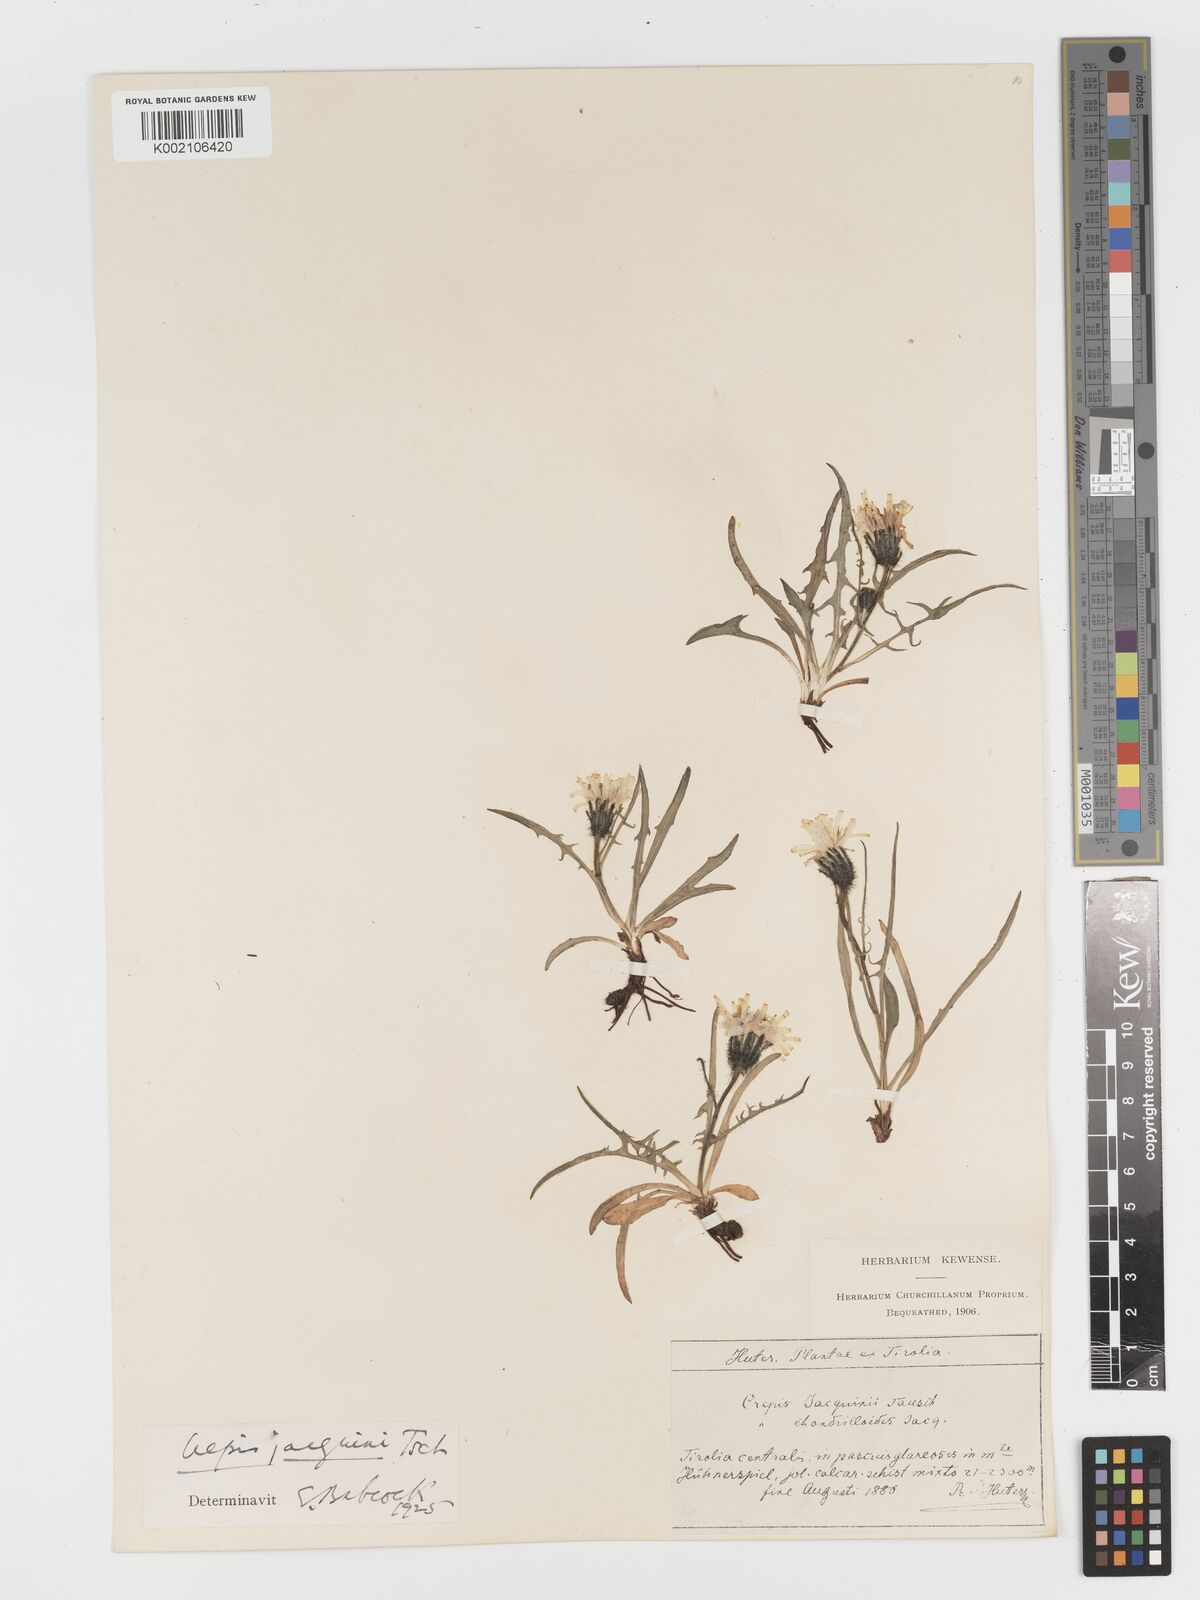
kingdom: Plantae
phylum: Tracheophyta
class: Magnoliopsida
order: Asterales
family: Asteraceae
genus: Crepis
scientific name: Crepis jacquinii
